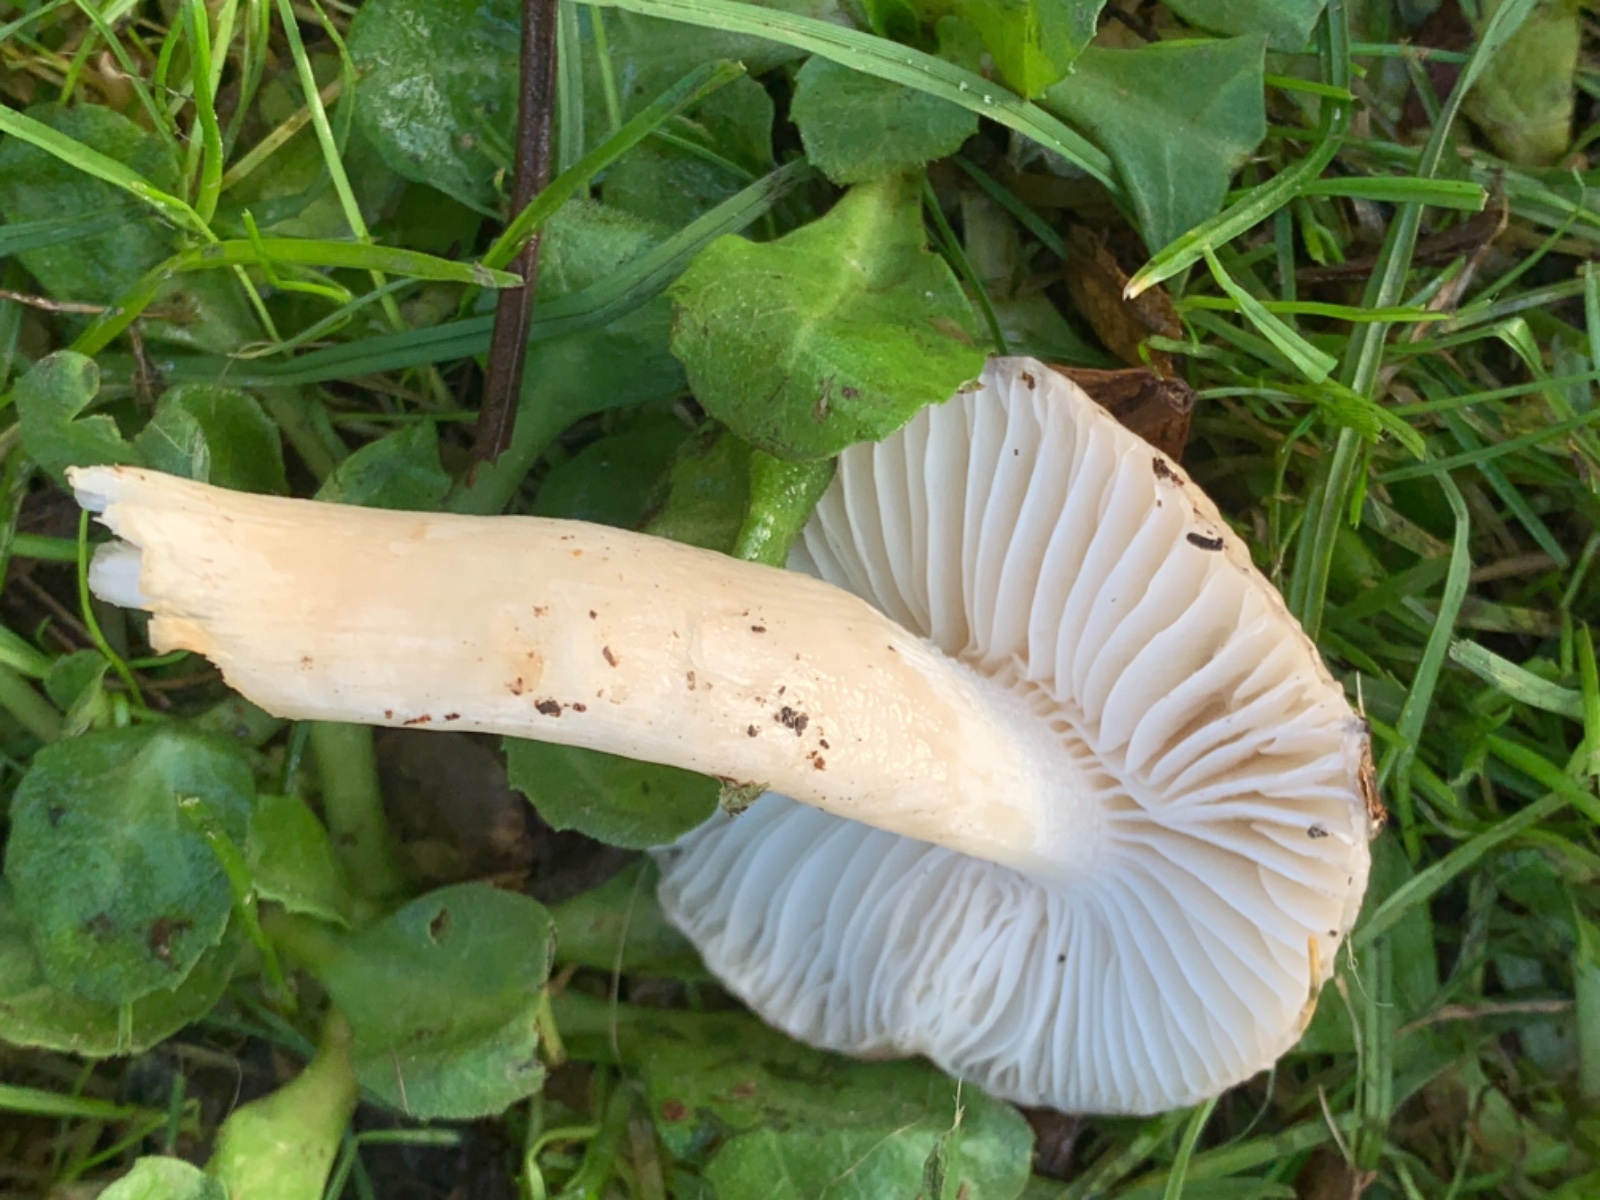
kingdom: Fungi
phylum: Basidiomycota
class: Agaricomycetes
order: Agaricales
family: Hygrophoraceae
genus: Hygrophorus
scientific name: Hygrophorus mesotephrus
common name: askegrå sneglehat
